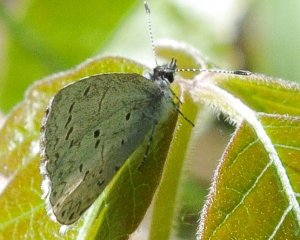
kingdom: Animalia
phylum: Arthropoda
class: Insecta
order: Lepidoptera
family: Lycaenidae
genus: Celastrina
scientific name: Celastrina serotina
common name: Cherry Gall Azure
